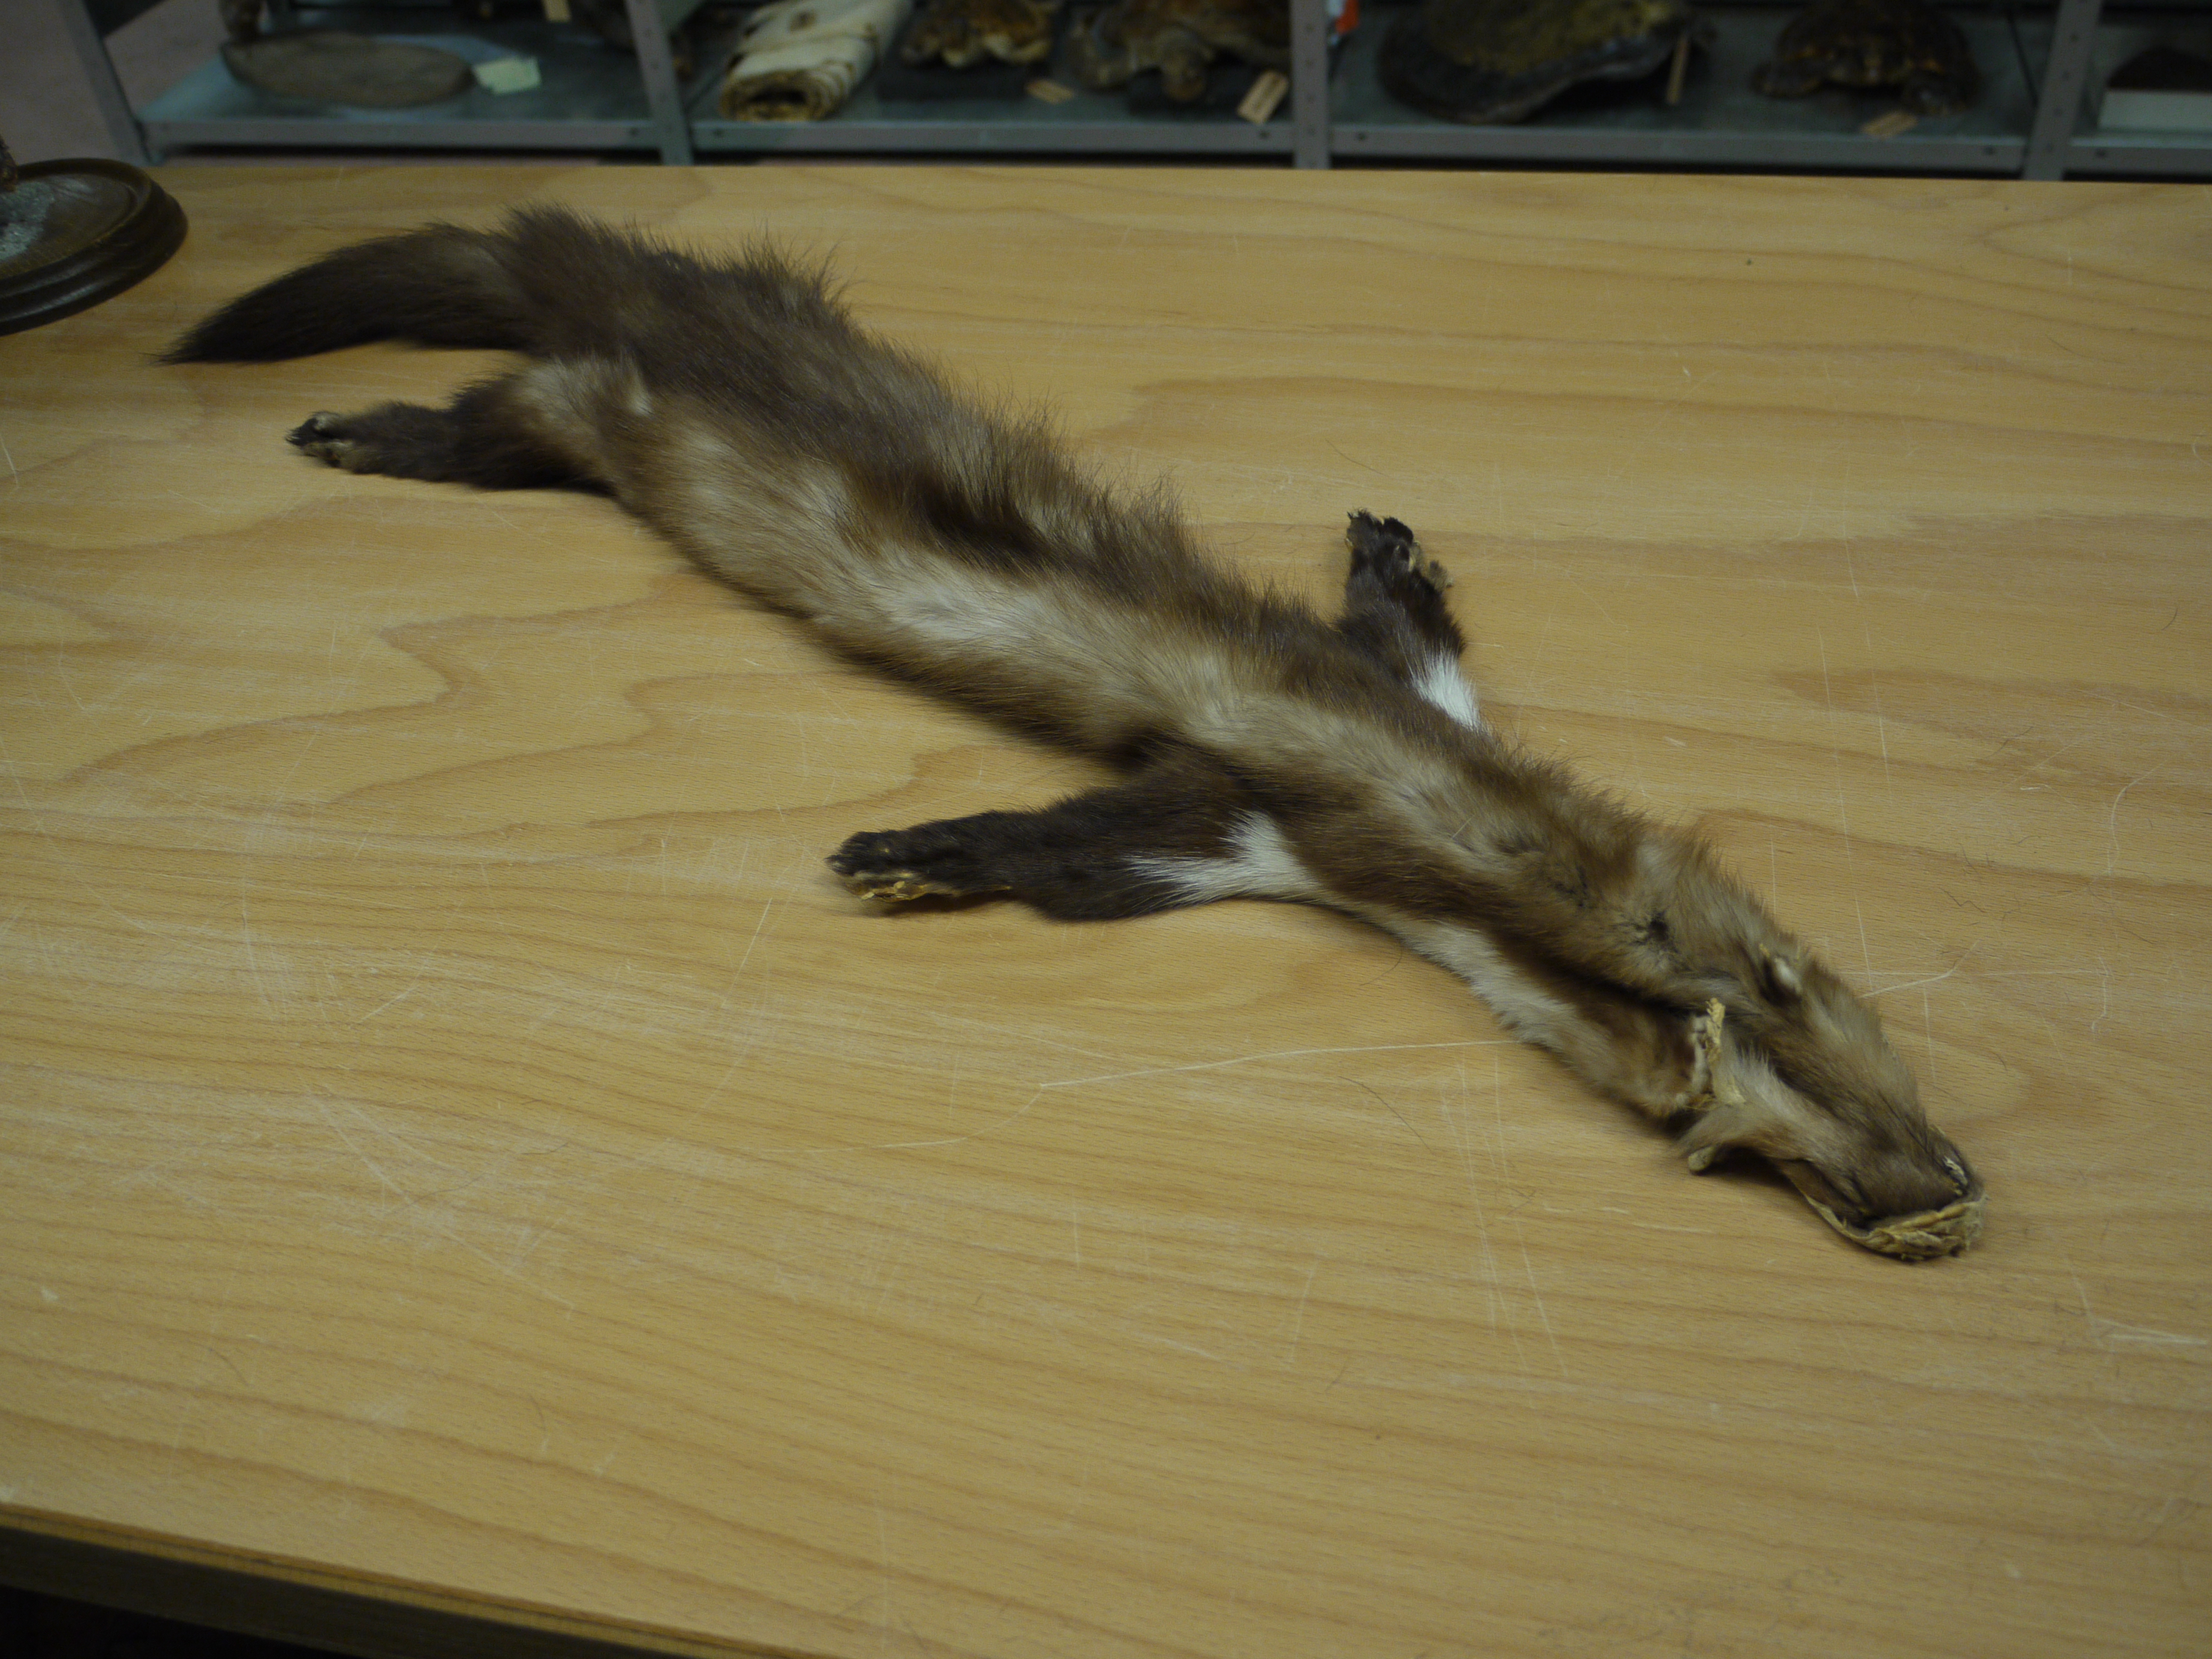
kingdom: Animalia
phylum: Chordata
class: Mammalia
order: Carnivora
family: Mustelidae
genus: Martes
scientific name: Martes foina
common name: Beech marten
